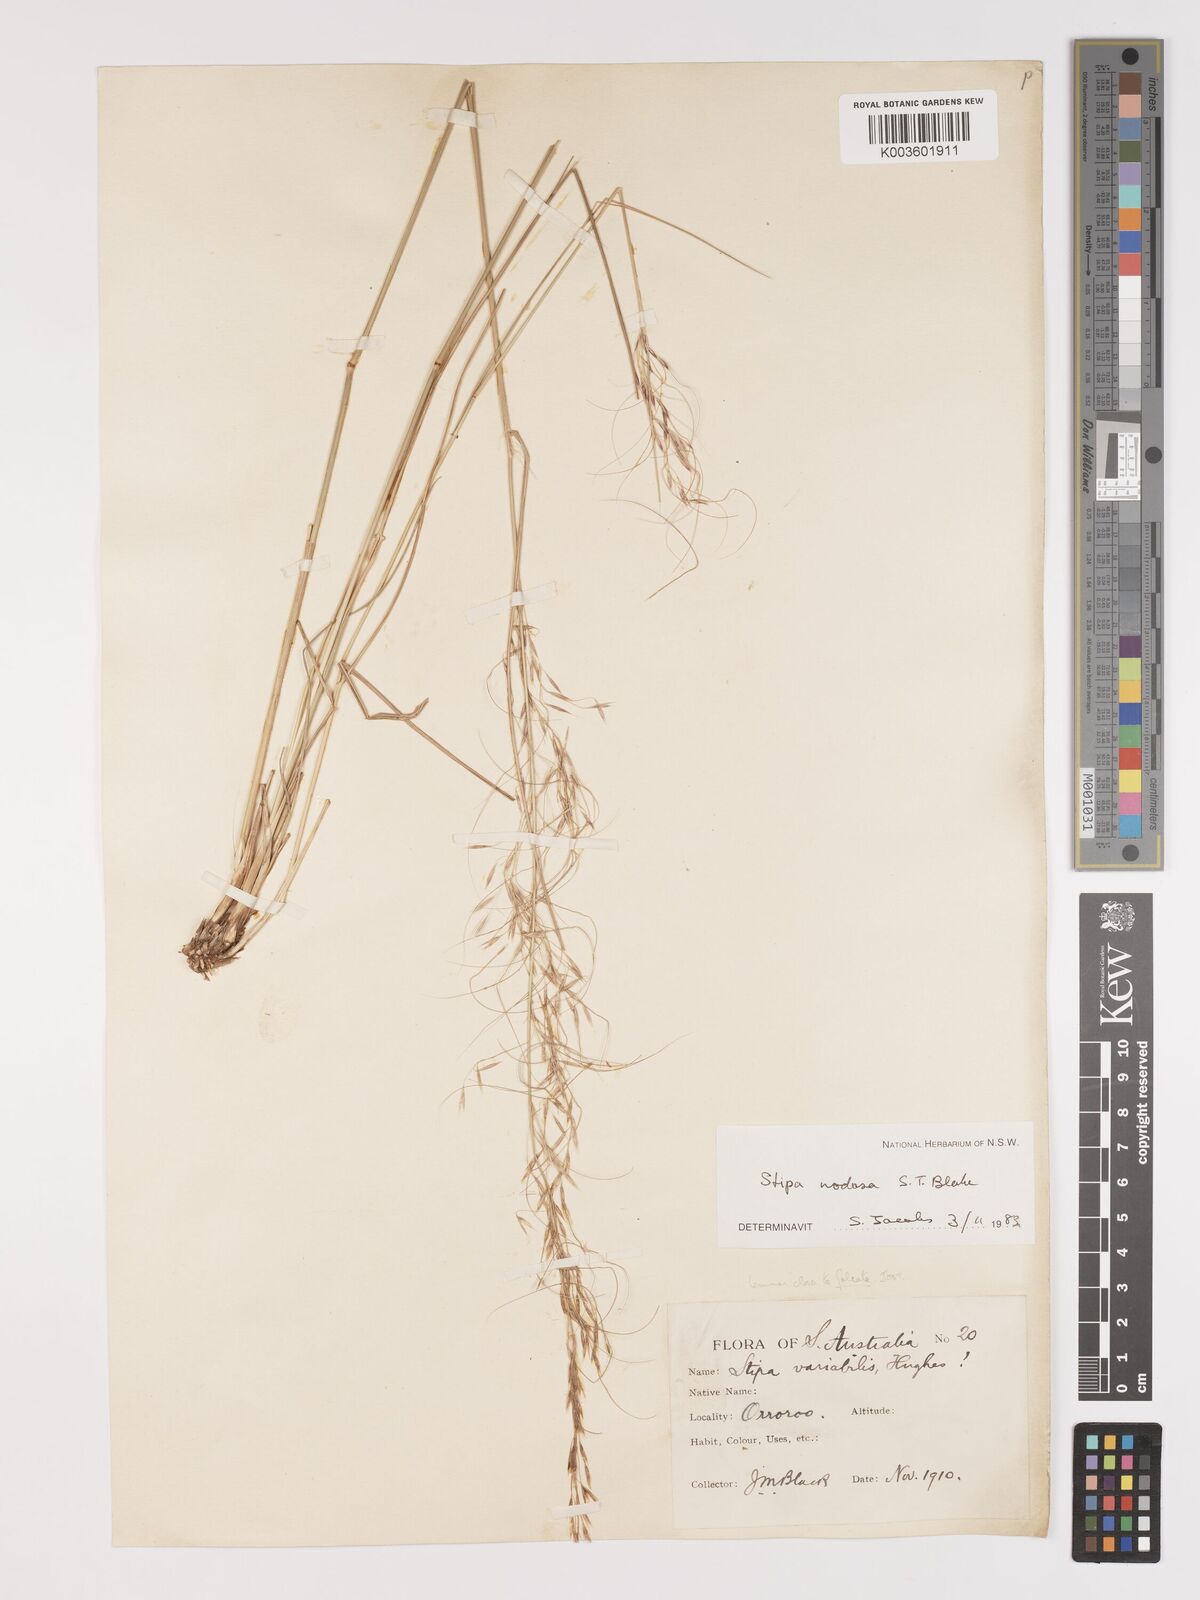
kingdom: Plantae
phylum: Tracheophyta
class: Liliopsida
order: Poales
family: Poaceae
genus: Austrostipa
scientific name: Austrostipa nodosa
